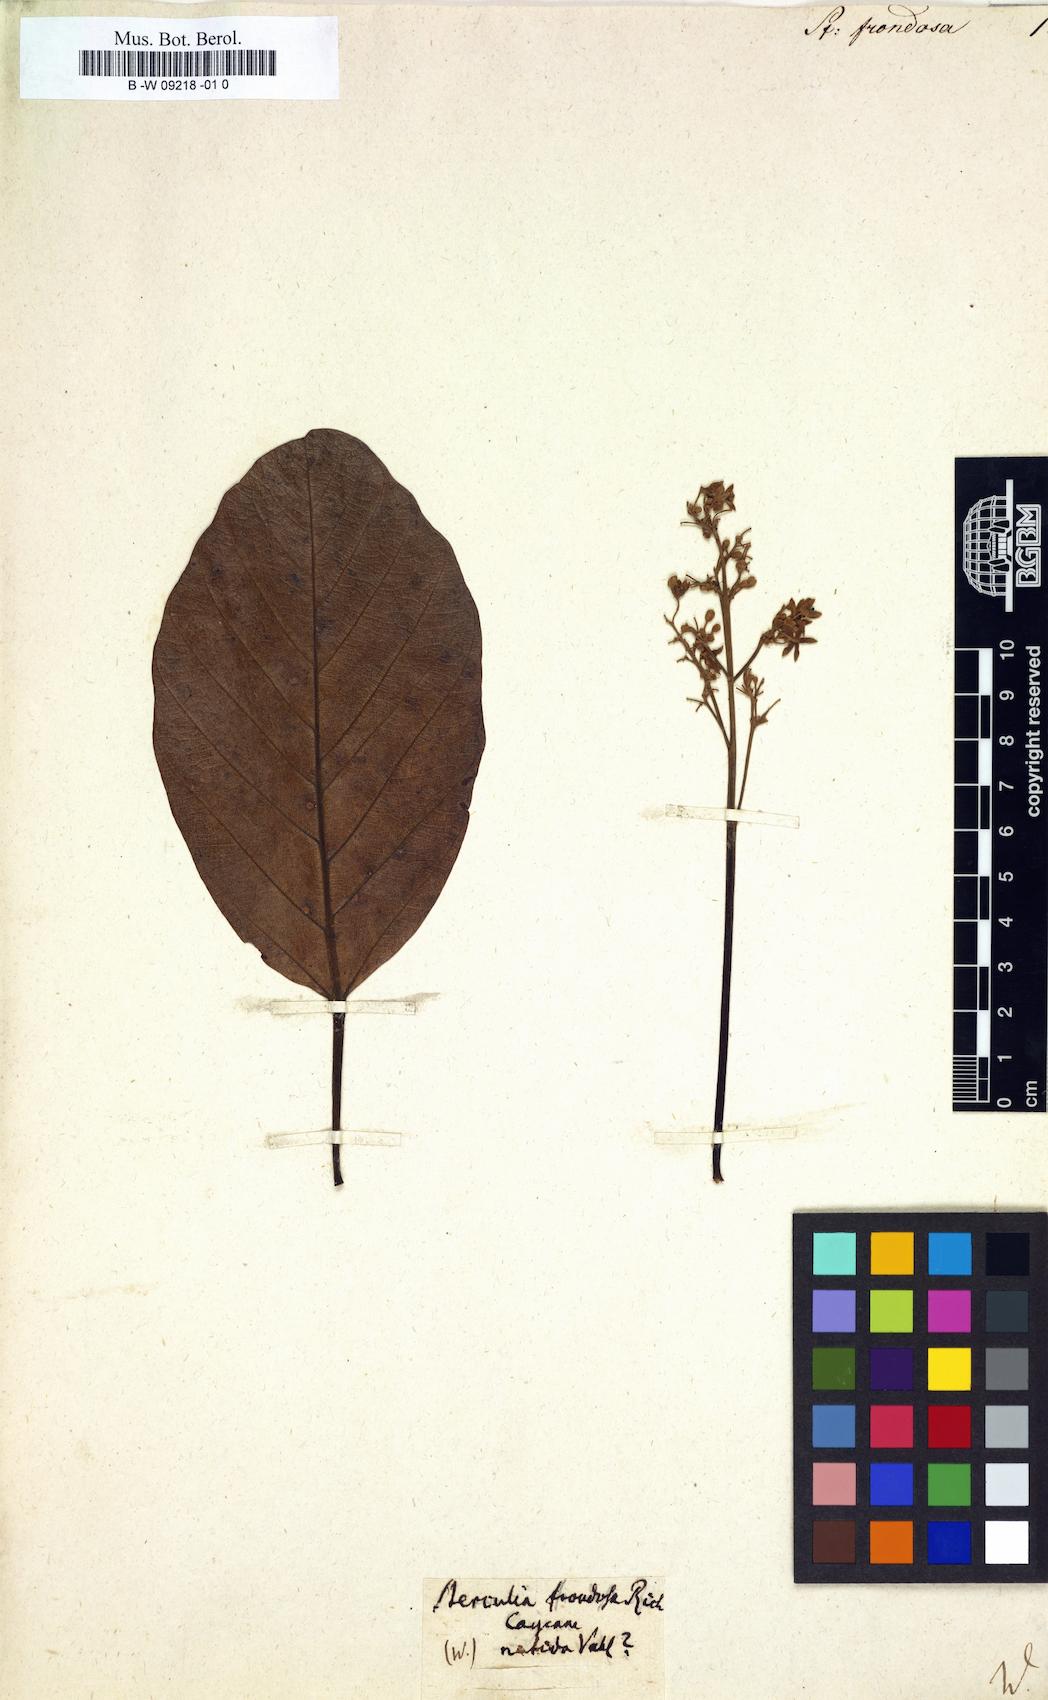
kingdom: Plantae
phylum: Tracheophyta
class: Magnoliopsida
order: Malvales
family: Malvaceae
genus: Sterculia
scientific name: Sterculia frondosa
